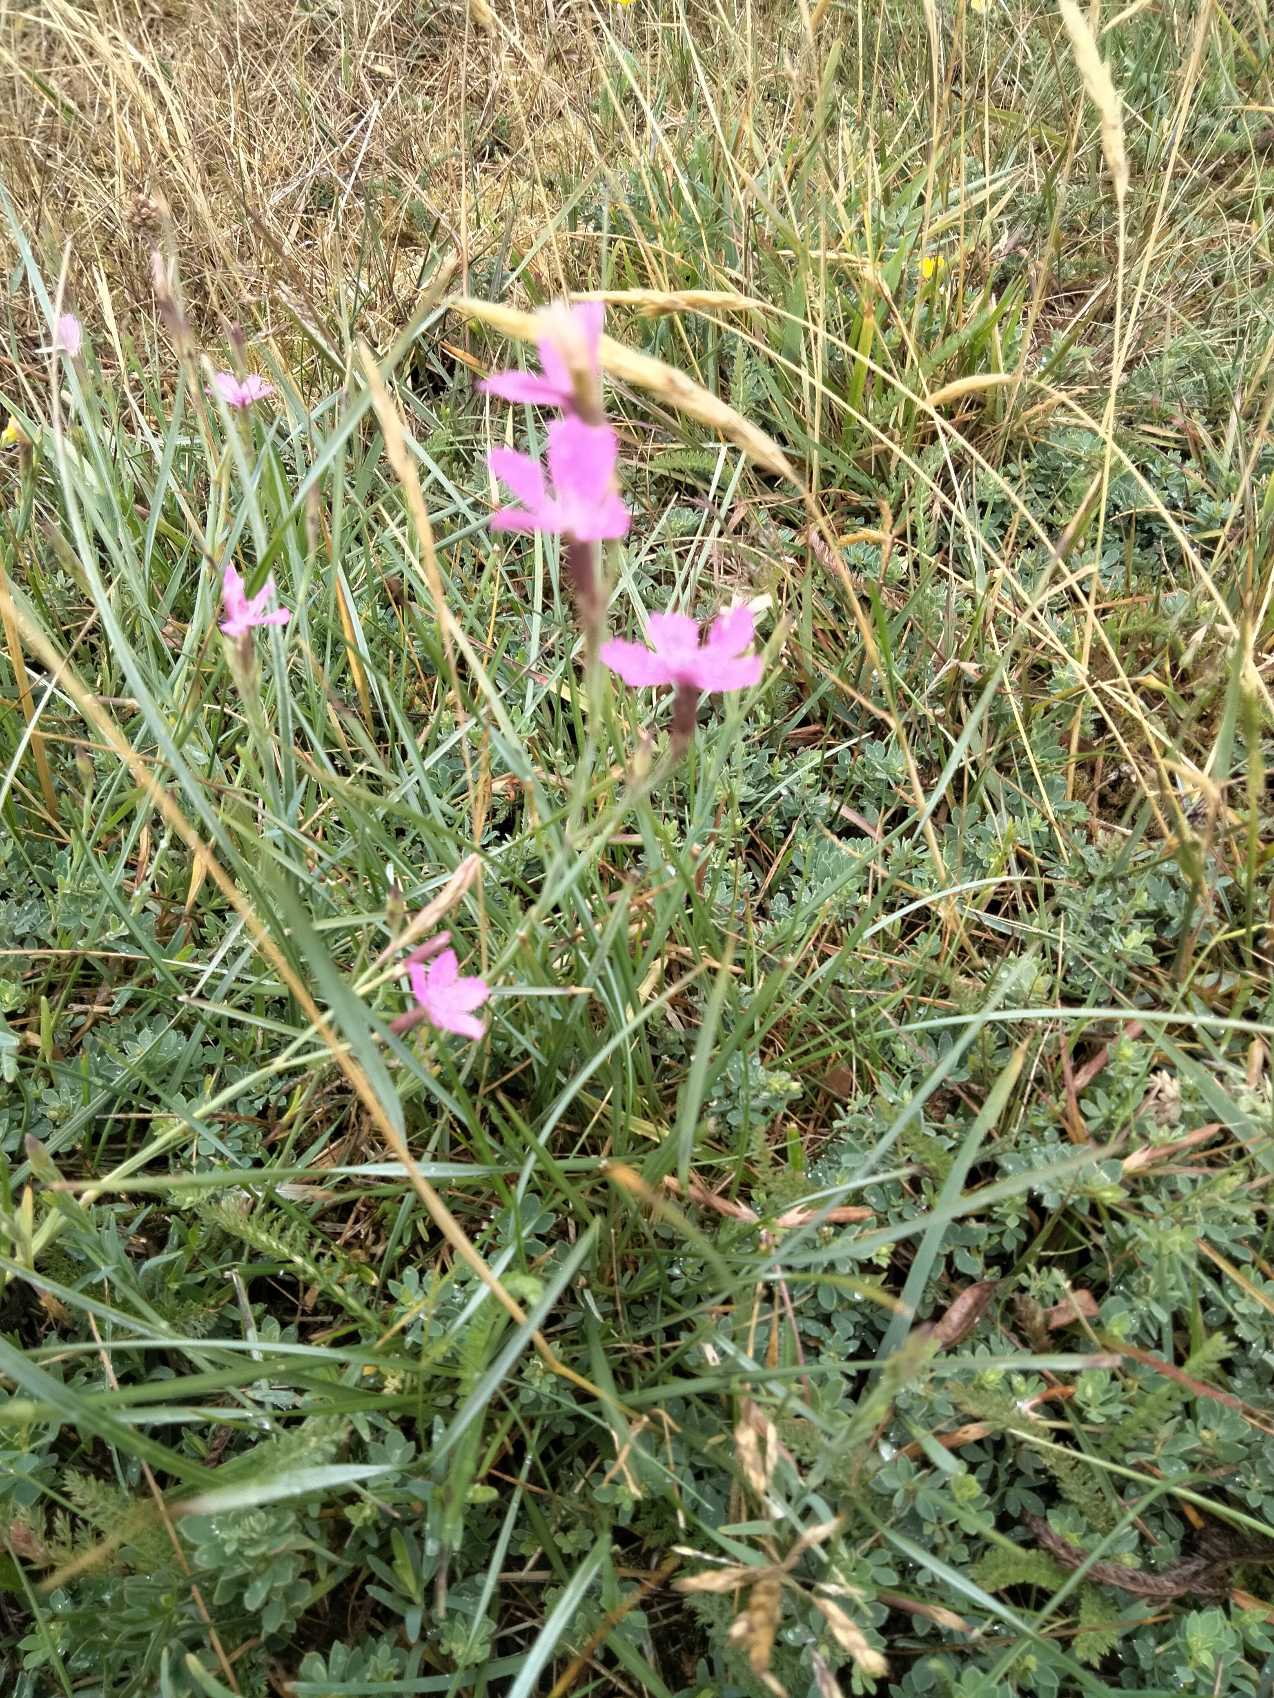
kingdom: Plantae
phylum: Tracheophyta
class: Magnoliopsida
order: Caryophyllales
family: Caryophyllaceae
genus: Dianthus
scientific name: Dianthus deltoides
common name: Bakke-nellike
